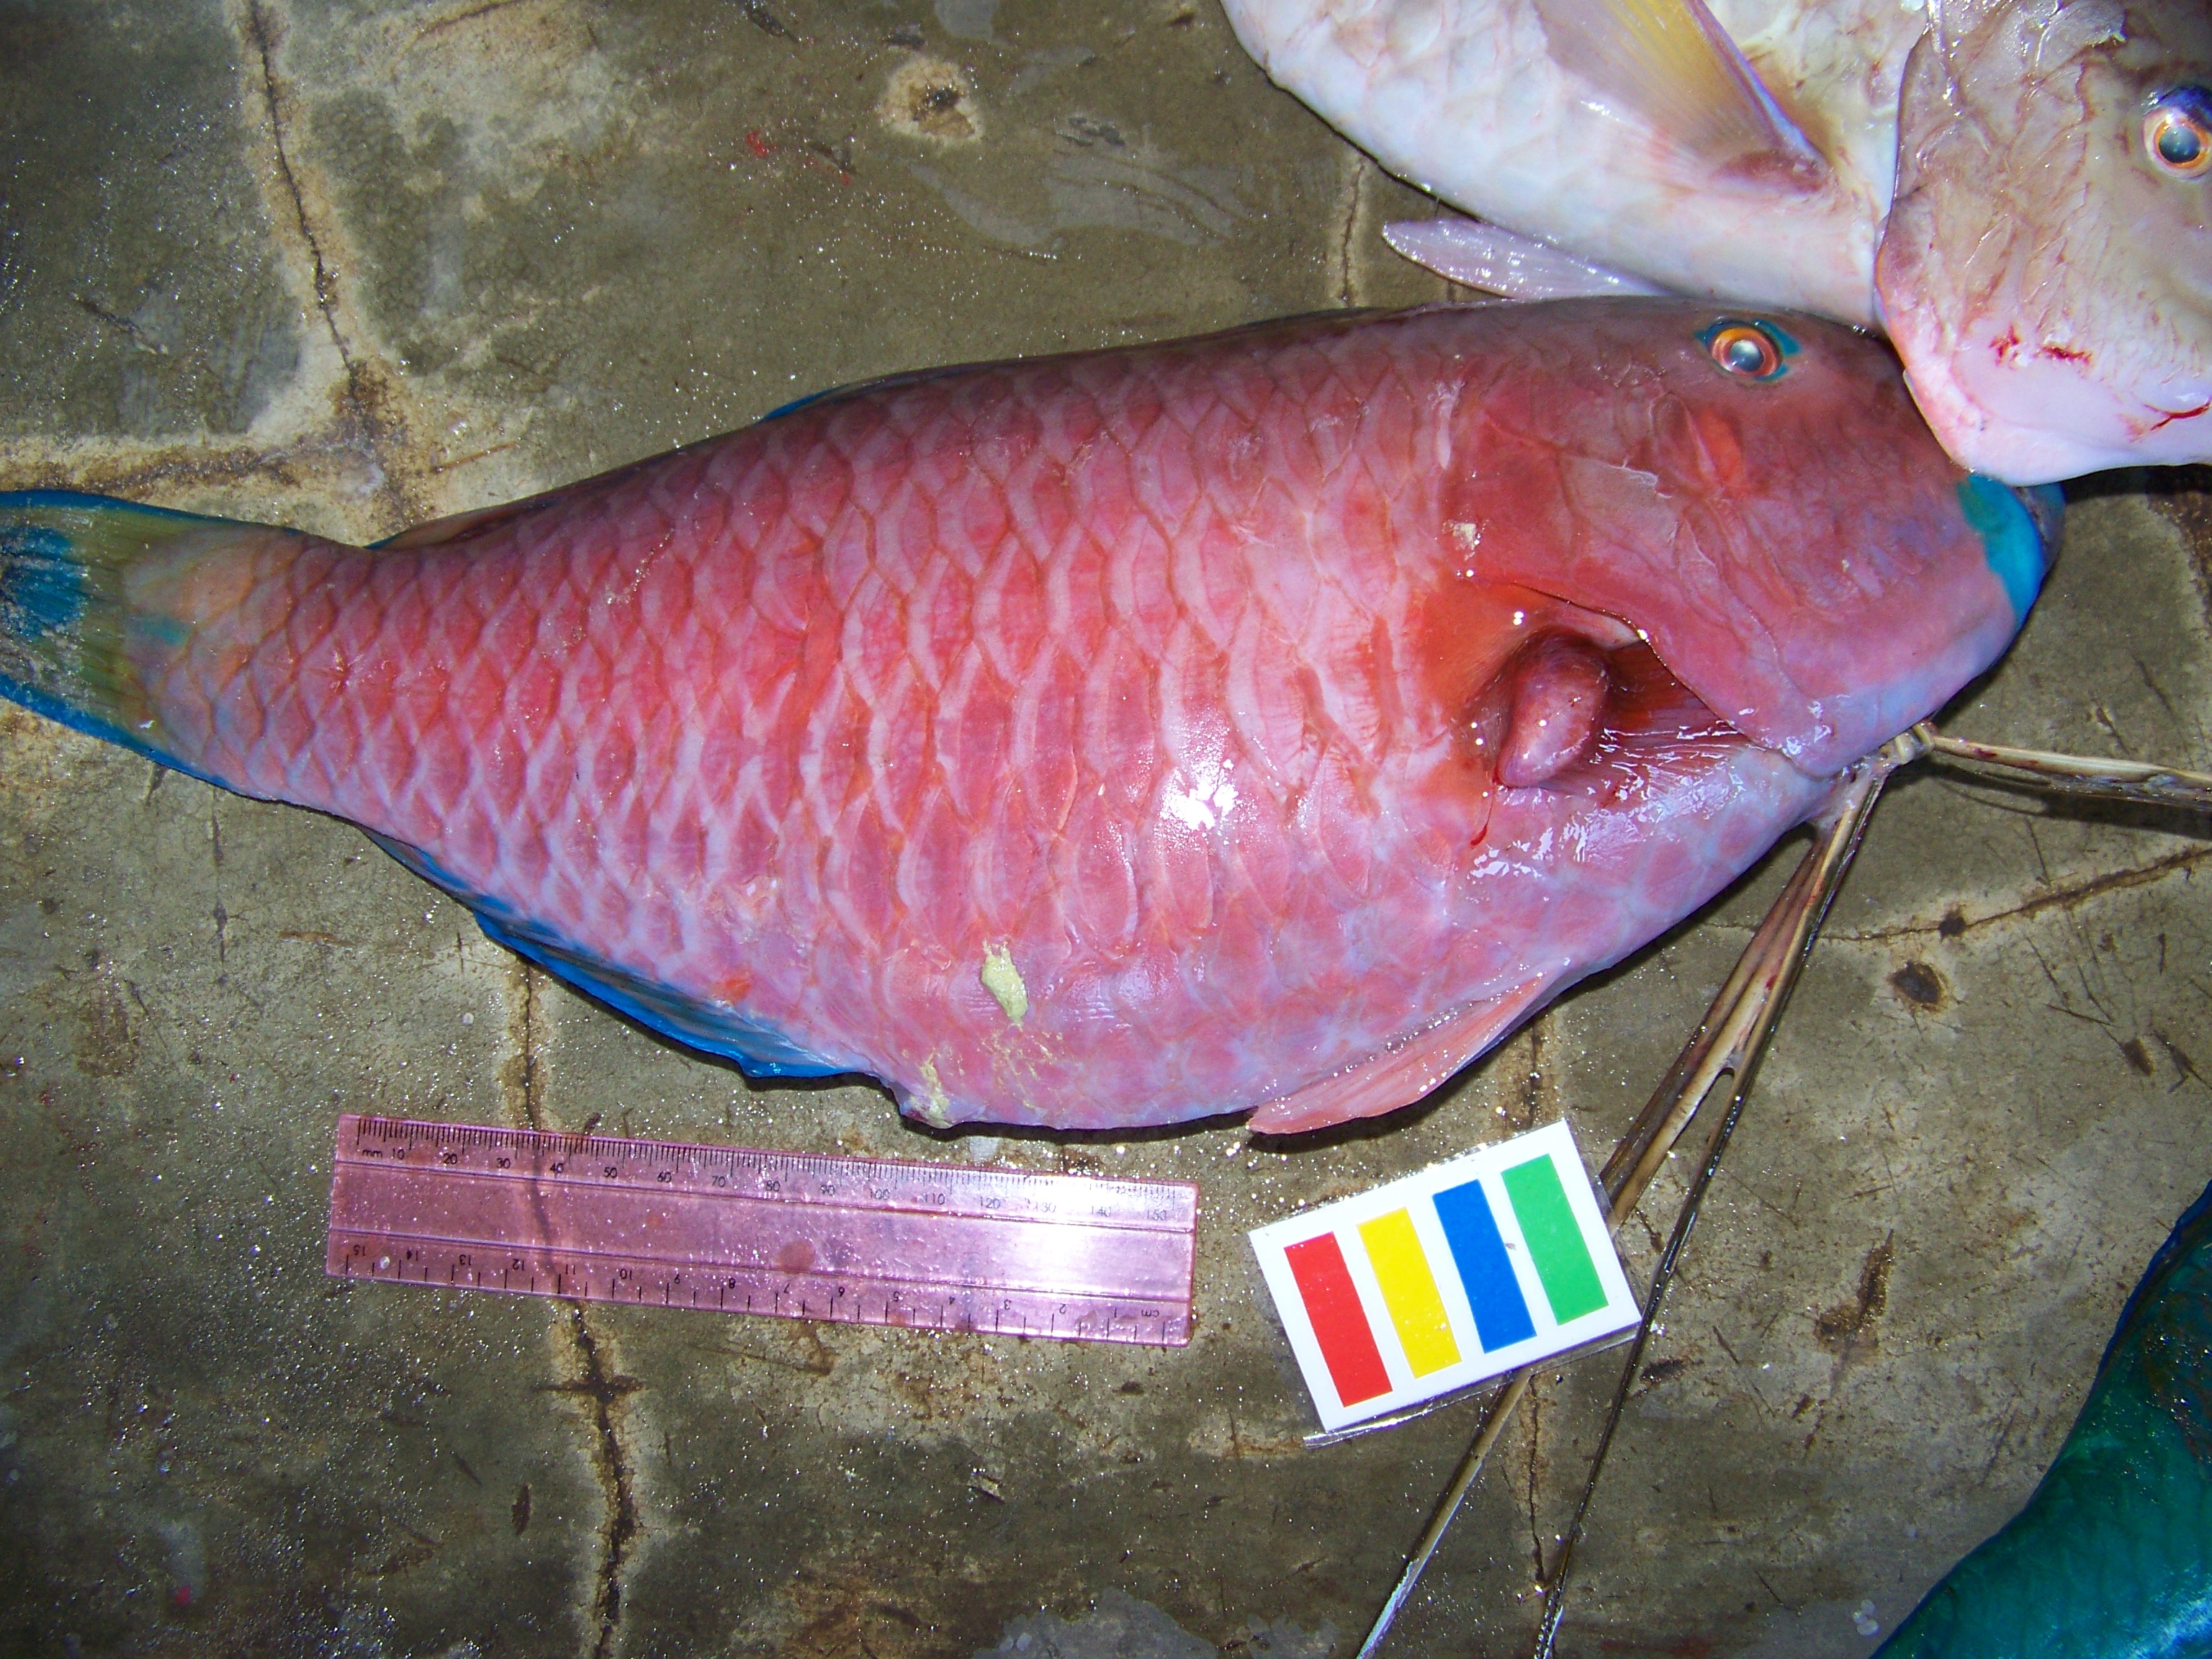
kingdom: Animalia
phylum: Chordata
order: Perciformes
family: Scaridae
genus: Chlorurus
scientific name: Chlorurus strongylocephalus
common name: Steephead parrotfish
